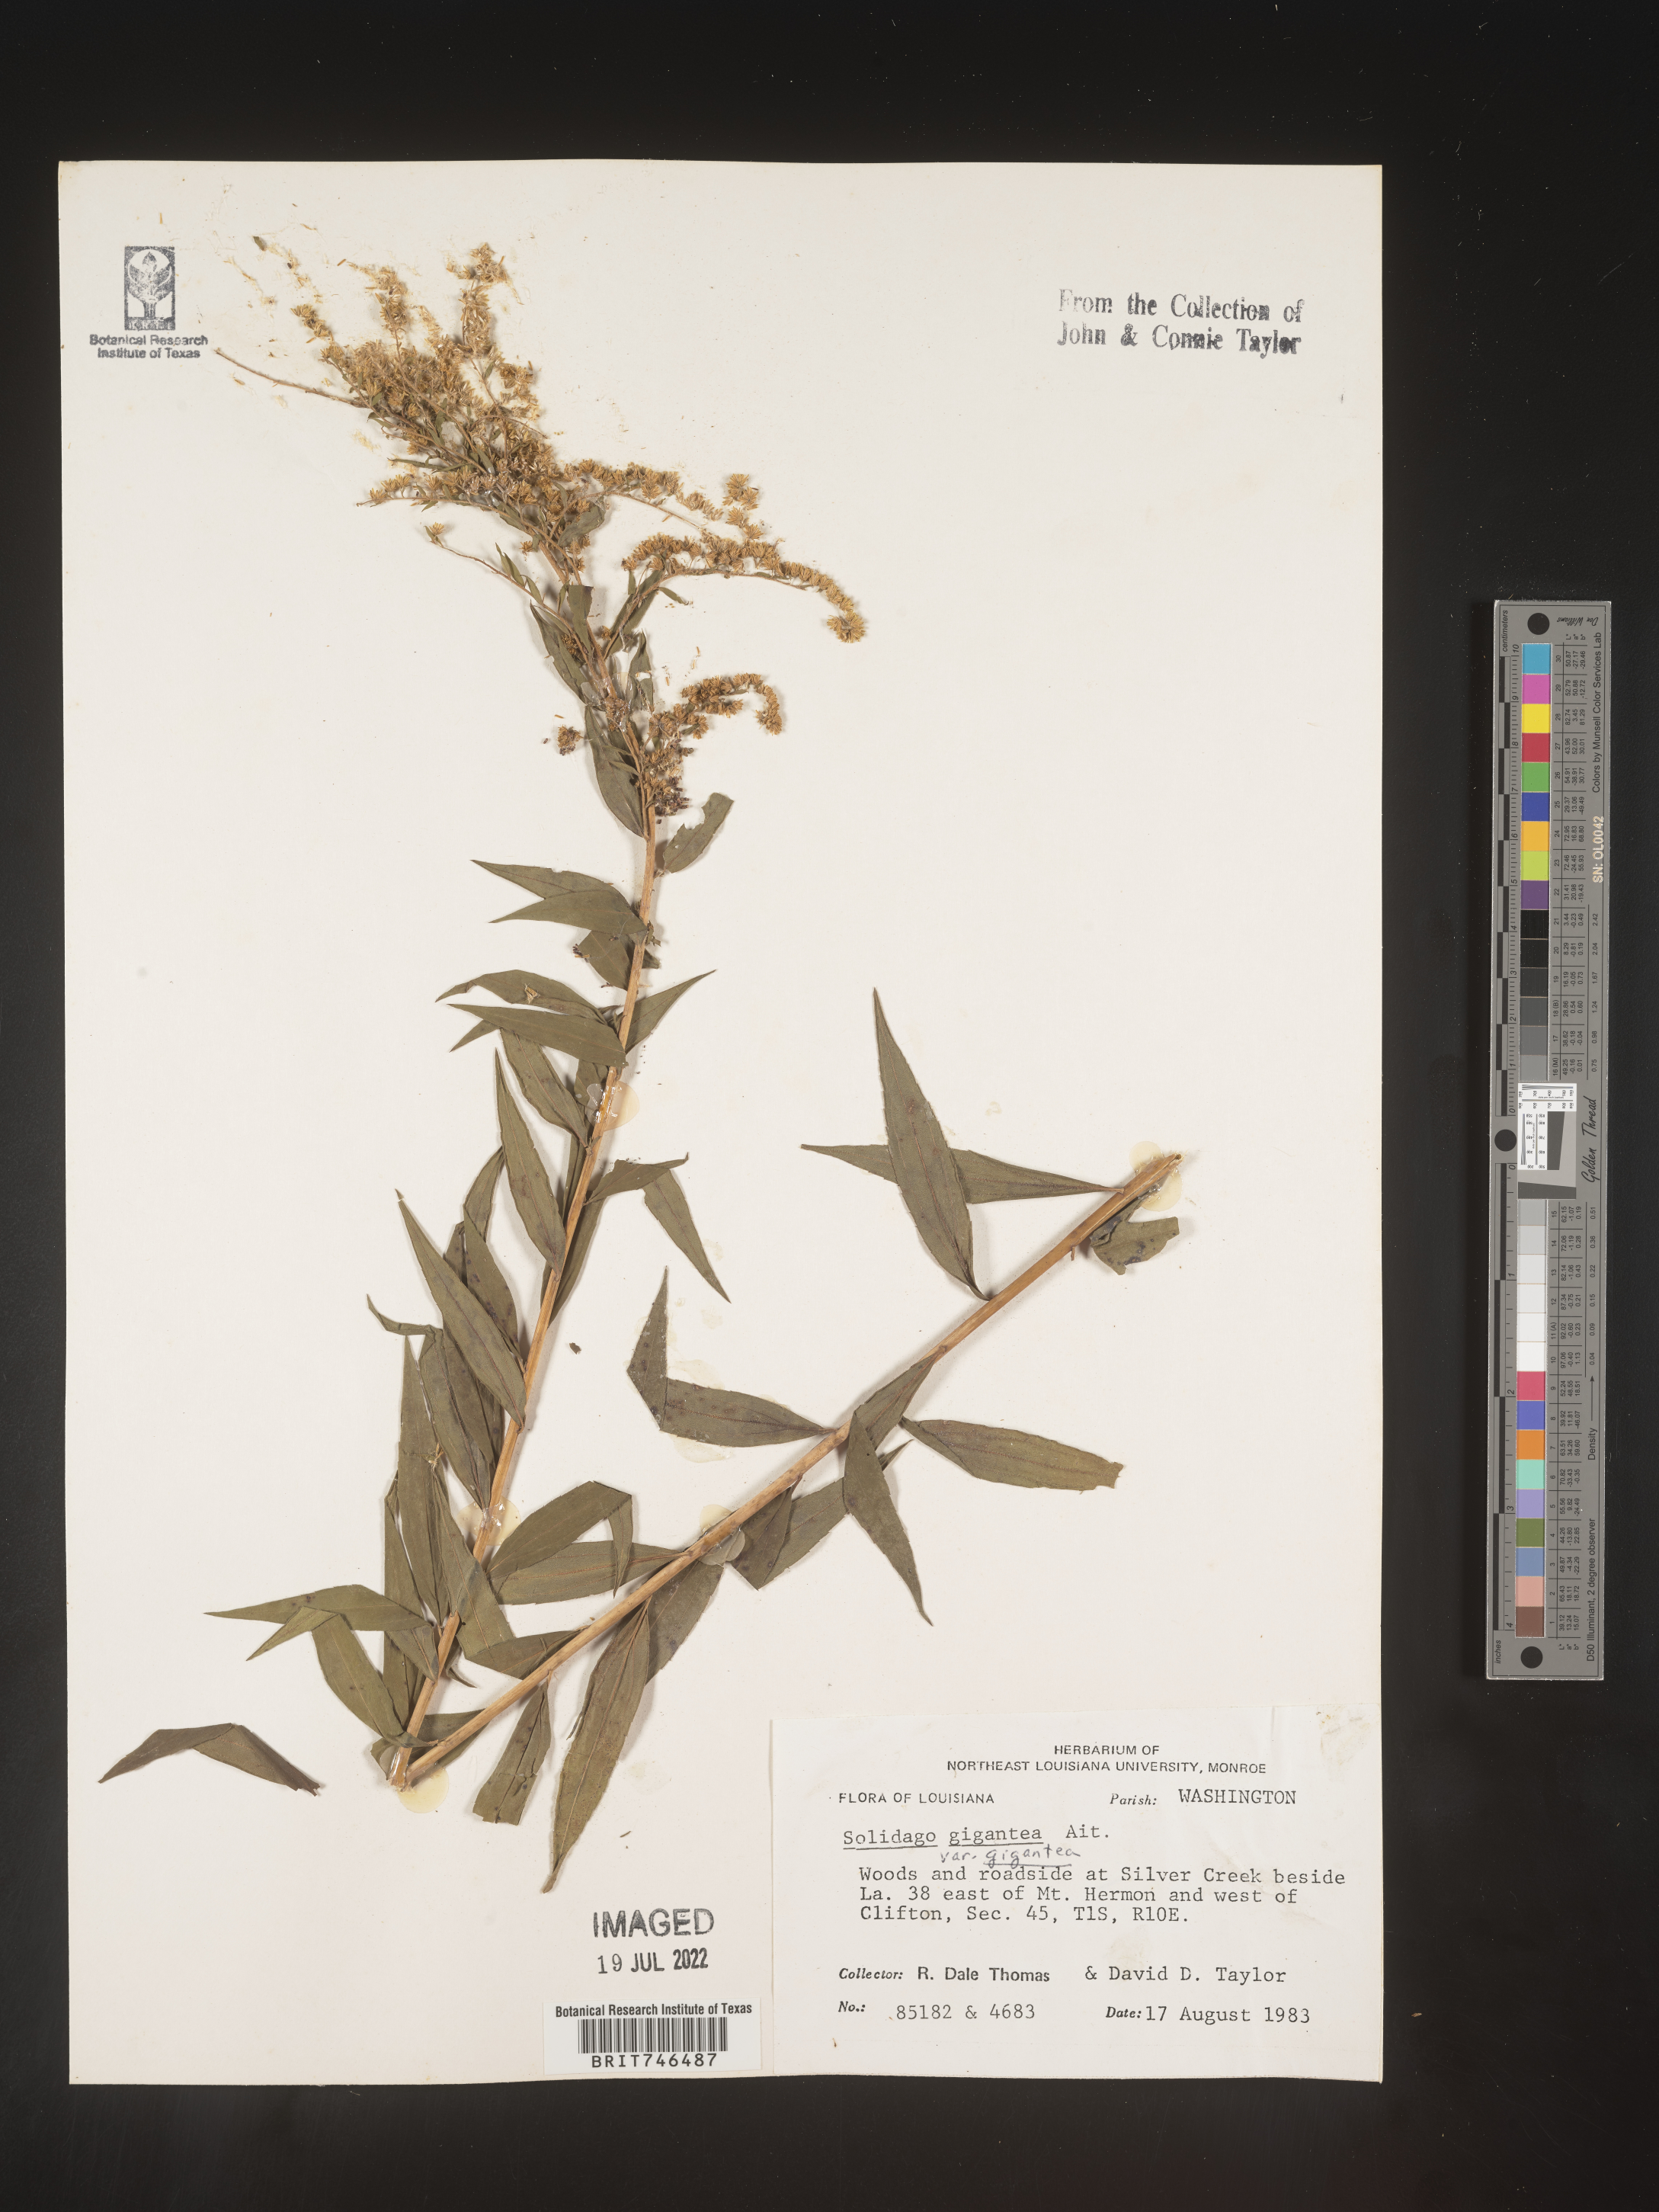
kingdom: Plantae
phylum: Tracheophyta
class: Magnoliopsida
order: Asterales
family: Asteraceae
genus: Solidago
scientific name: Solidago gigantea
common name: Giant goldenrod
